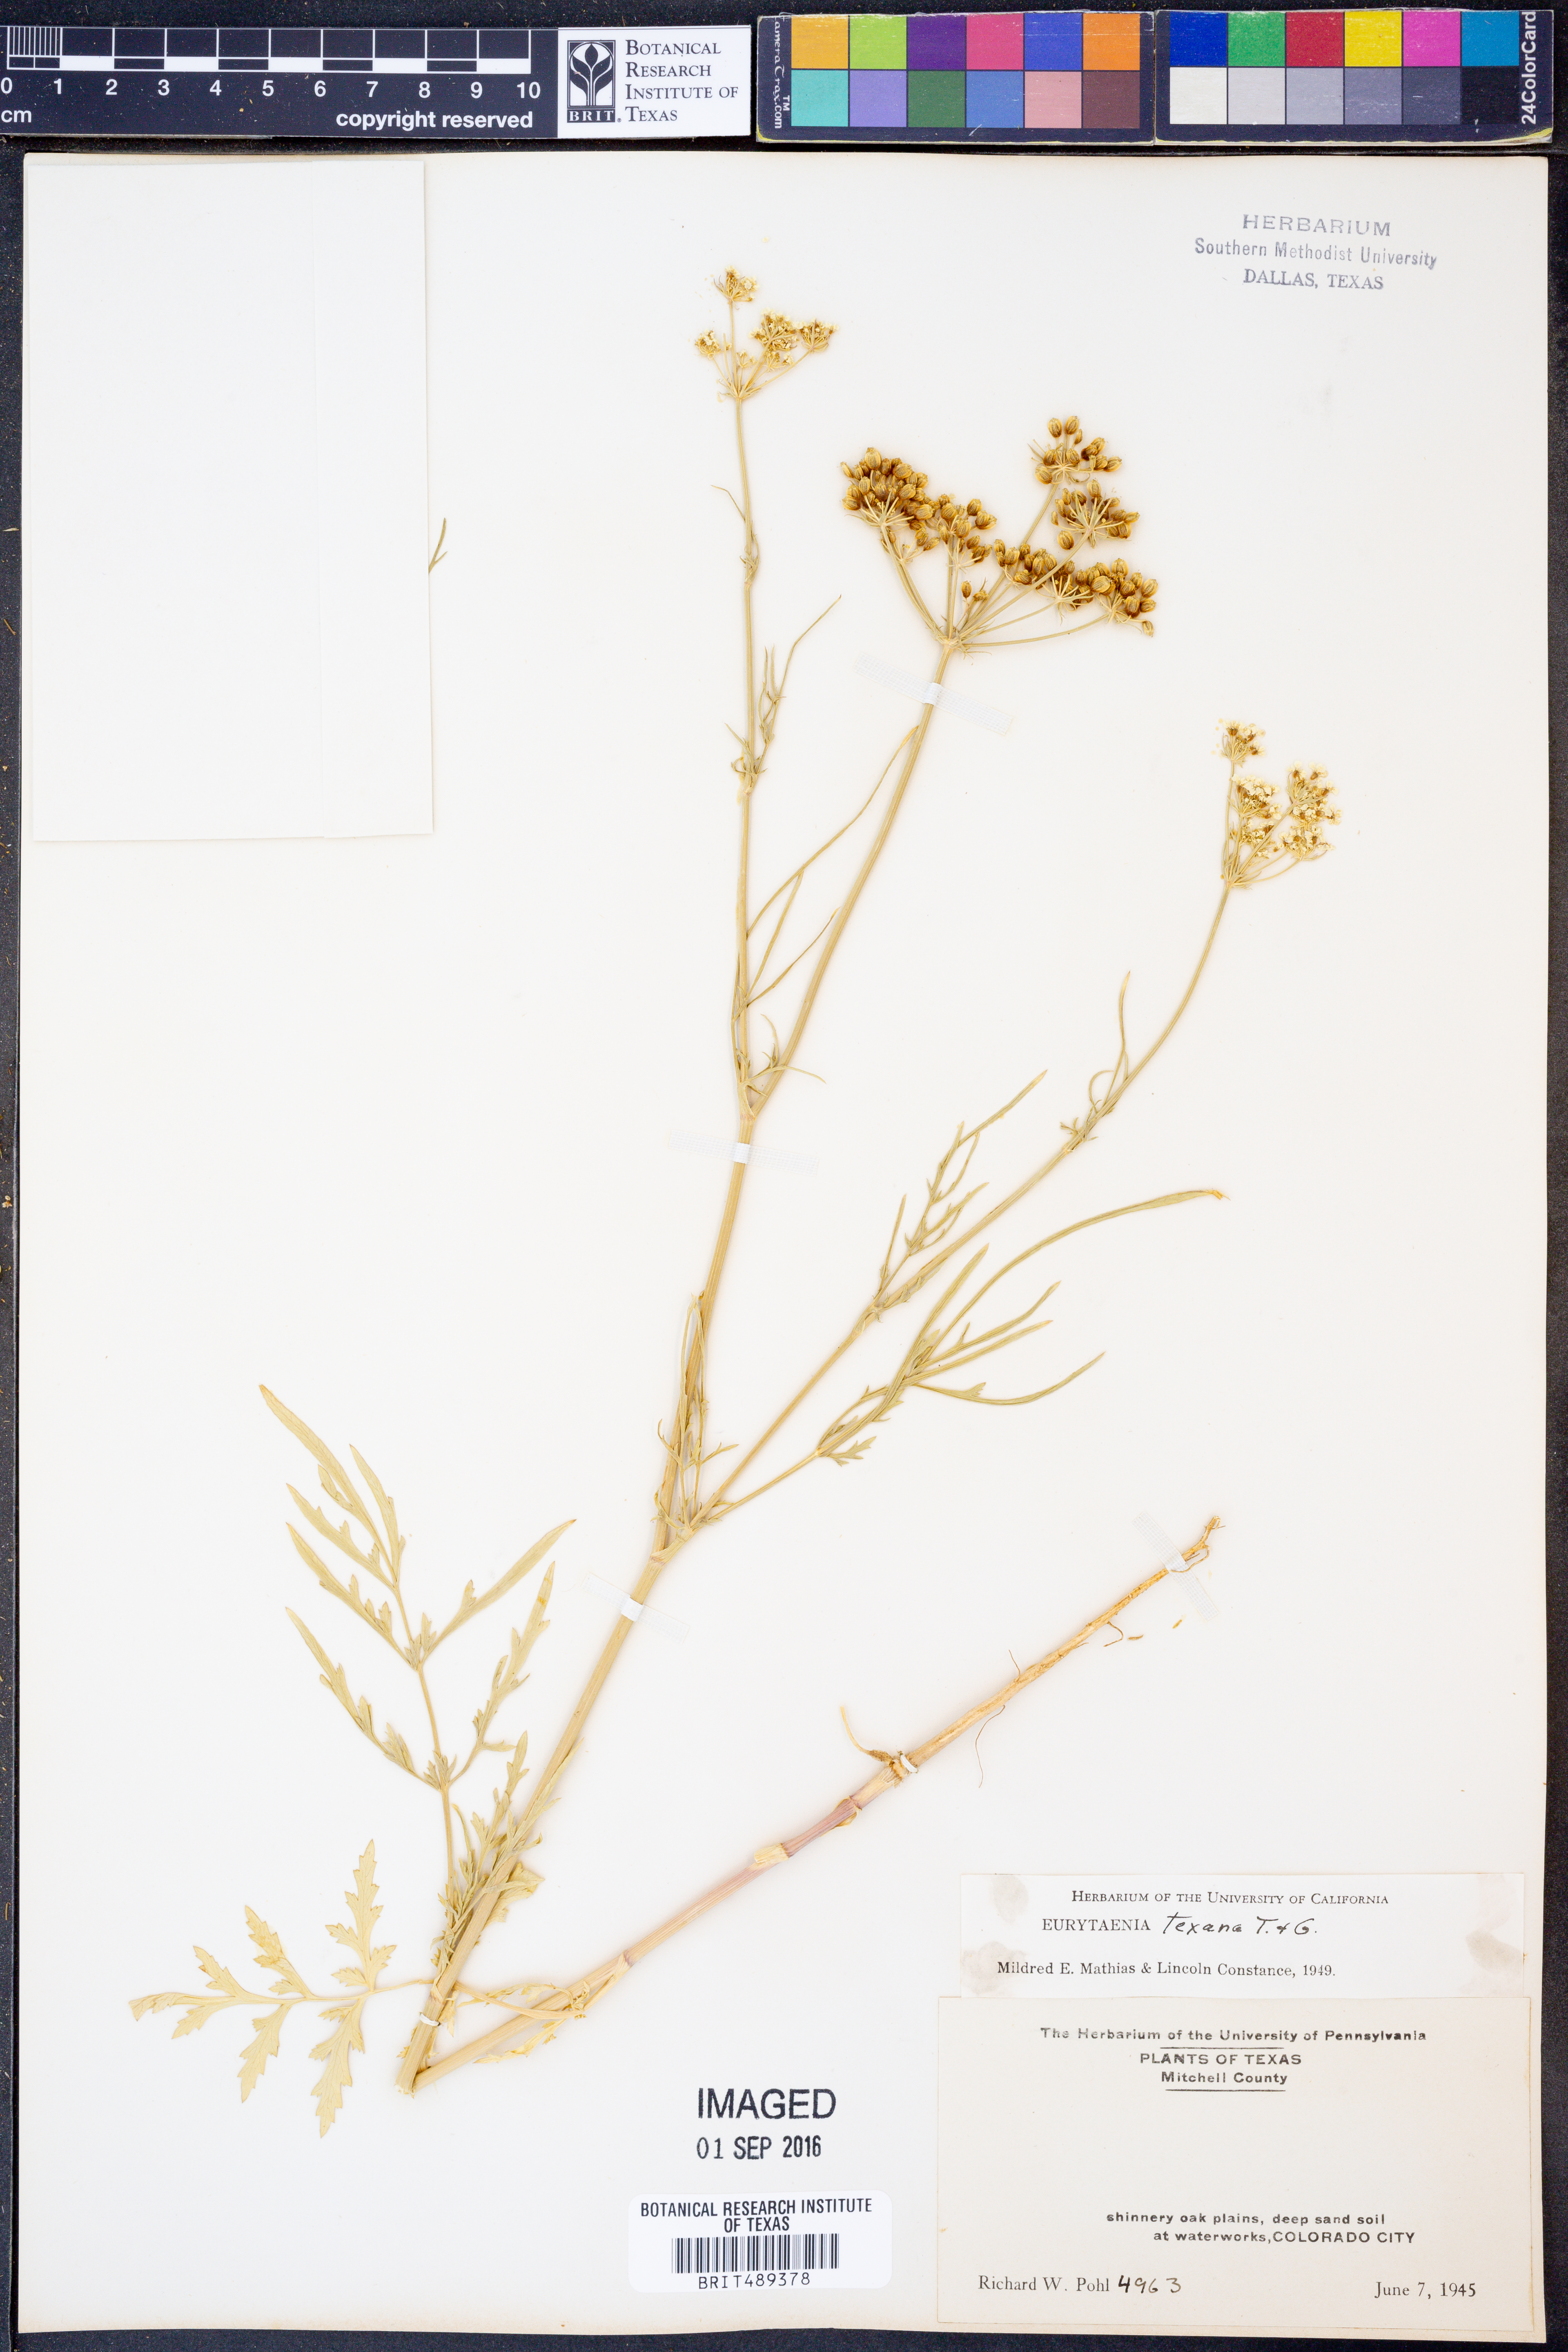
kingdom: Plantae
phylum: Tracheophyta
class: Magnoliopsida
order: Apiales
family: Apiaceae
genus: Eurytaenia
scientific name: Eurytaenia texana
